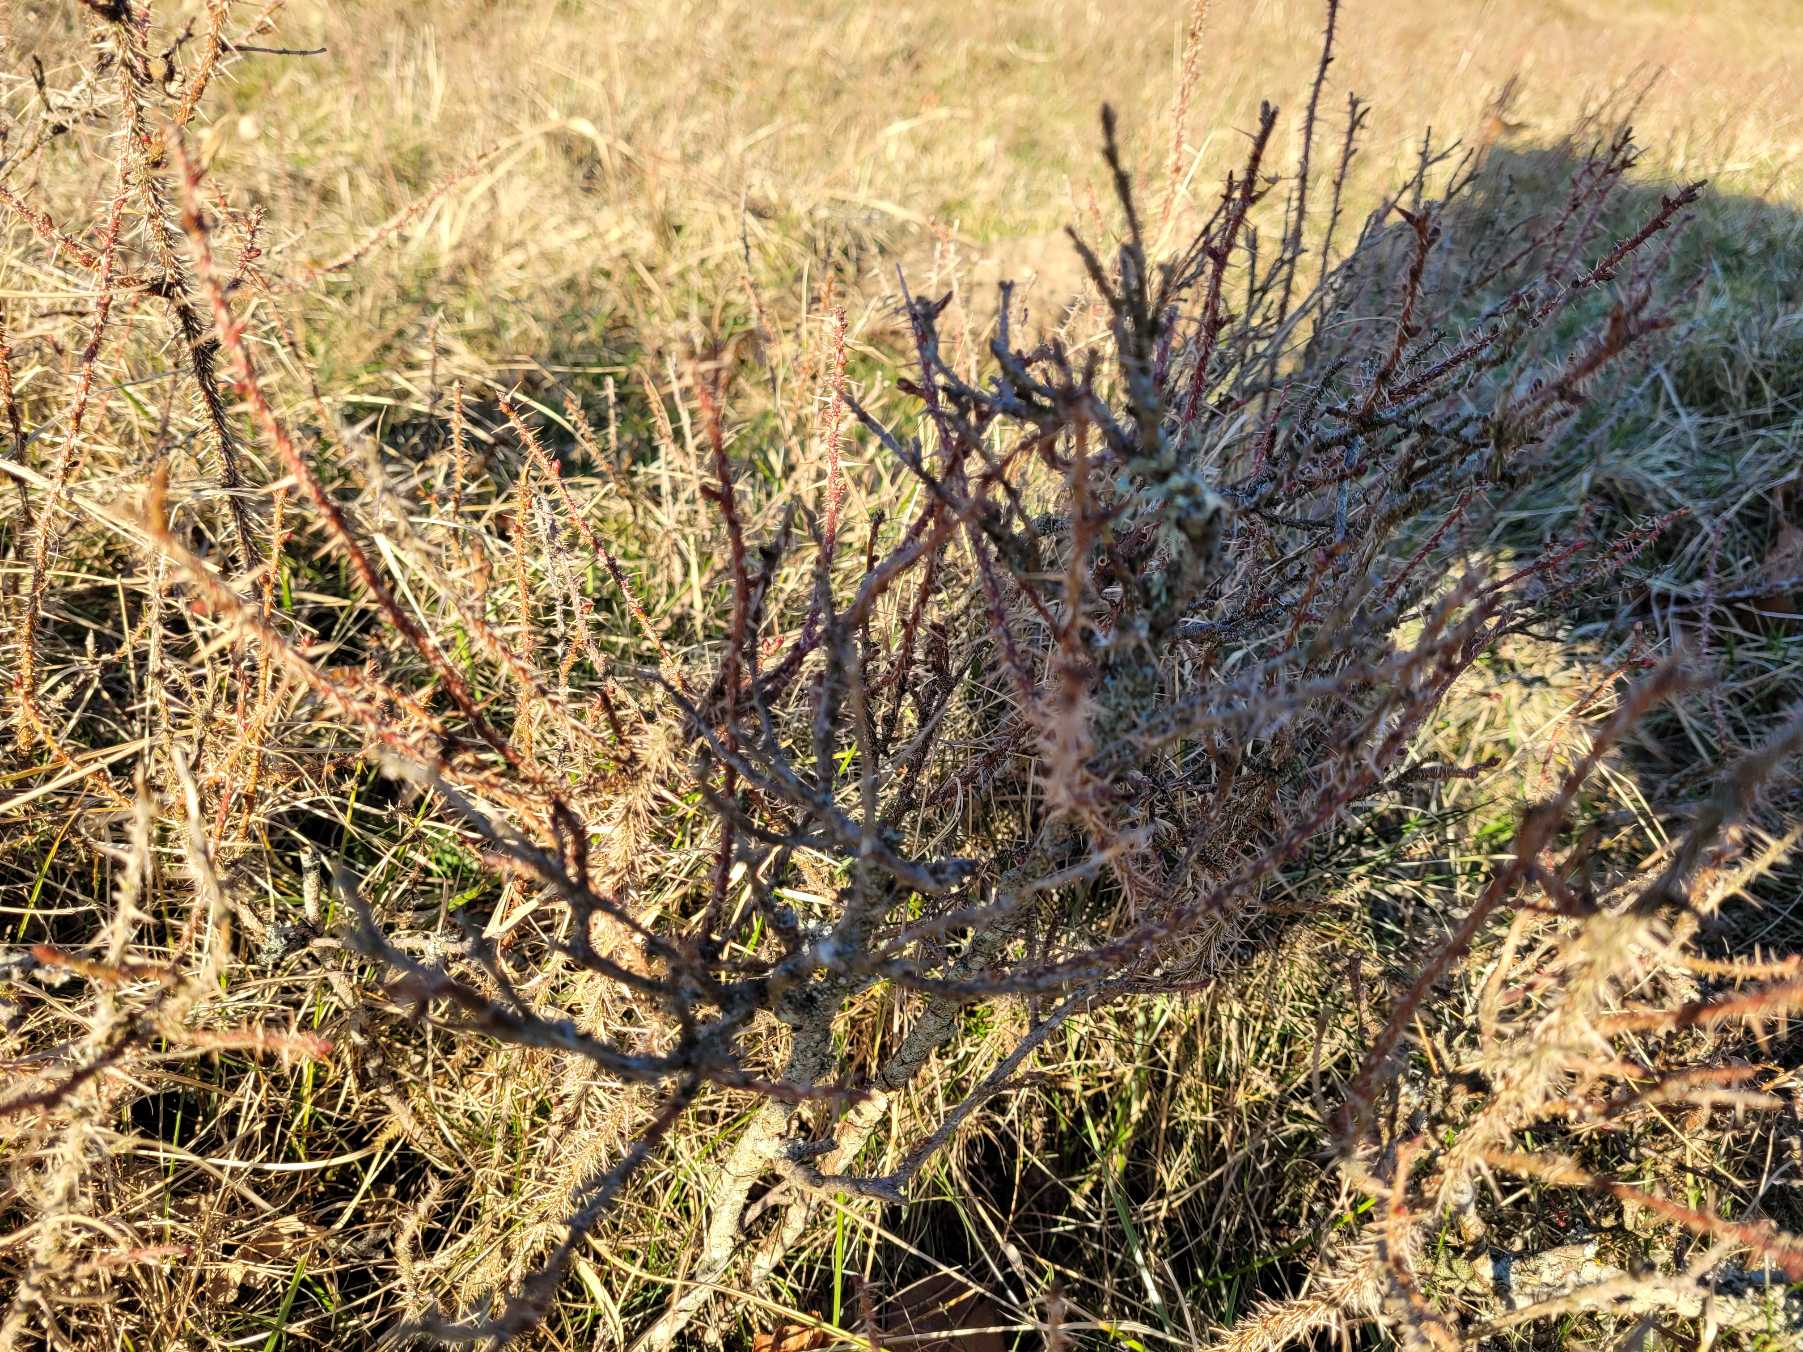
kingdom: Plantae
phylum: Tracheophyta
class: Magnoliopsida
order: Rosales
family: Rosaceae
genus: Rosa
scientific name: Rosa spinosissima
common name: Klit-rose
